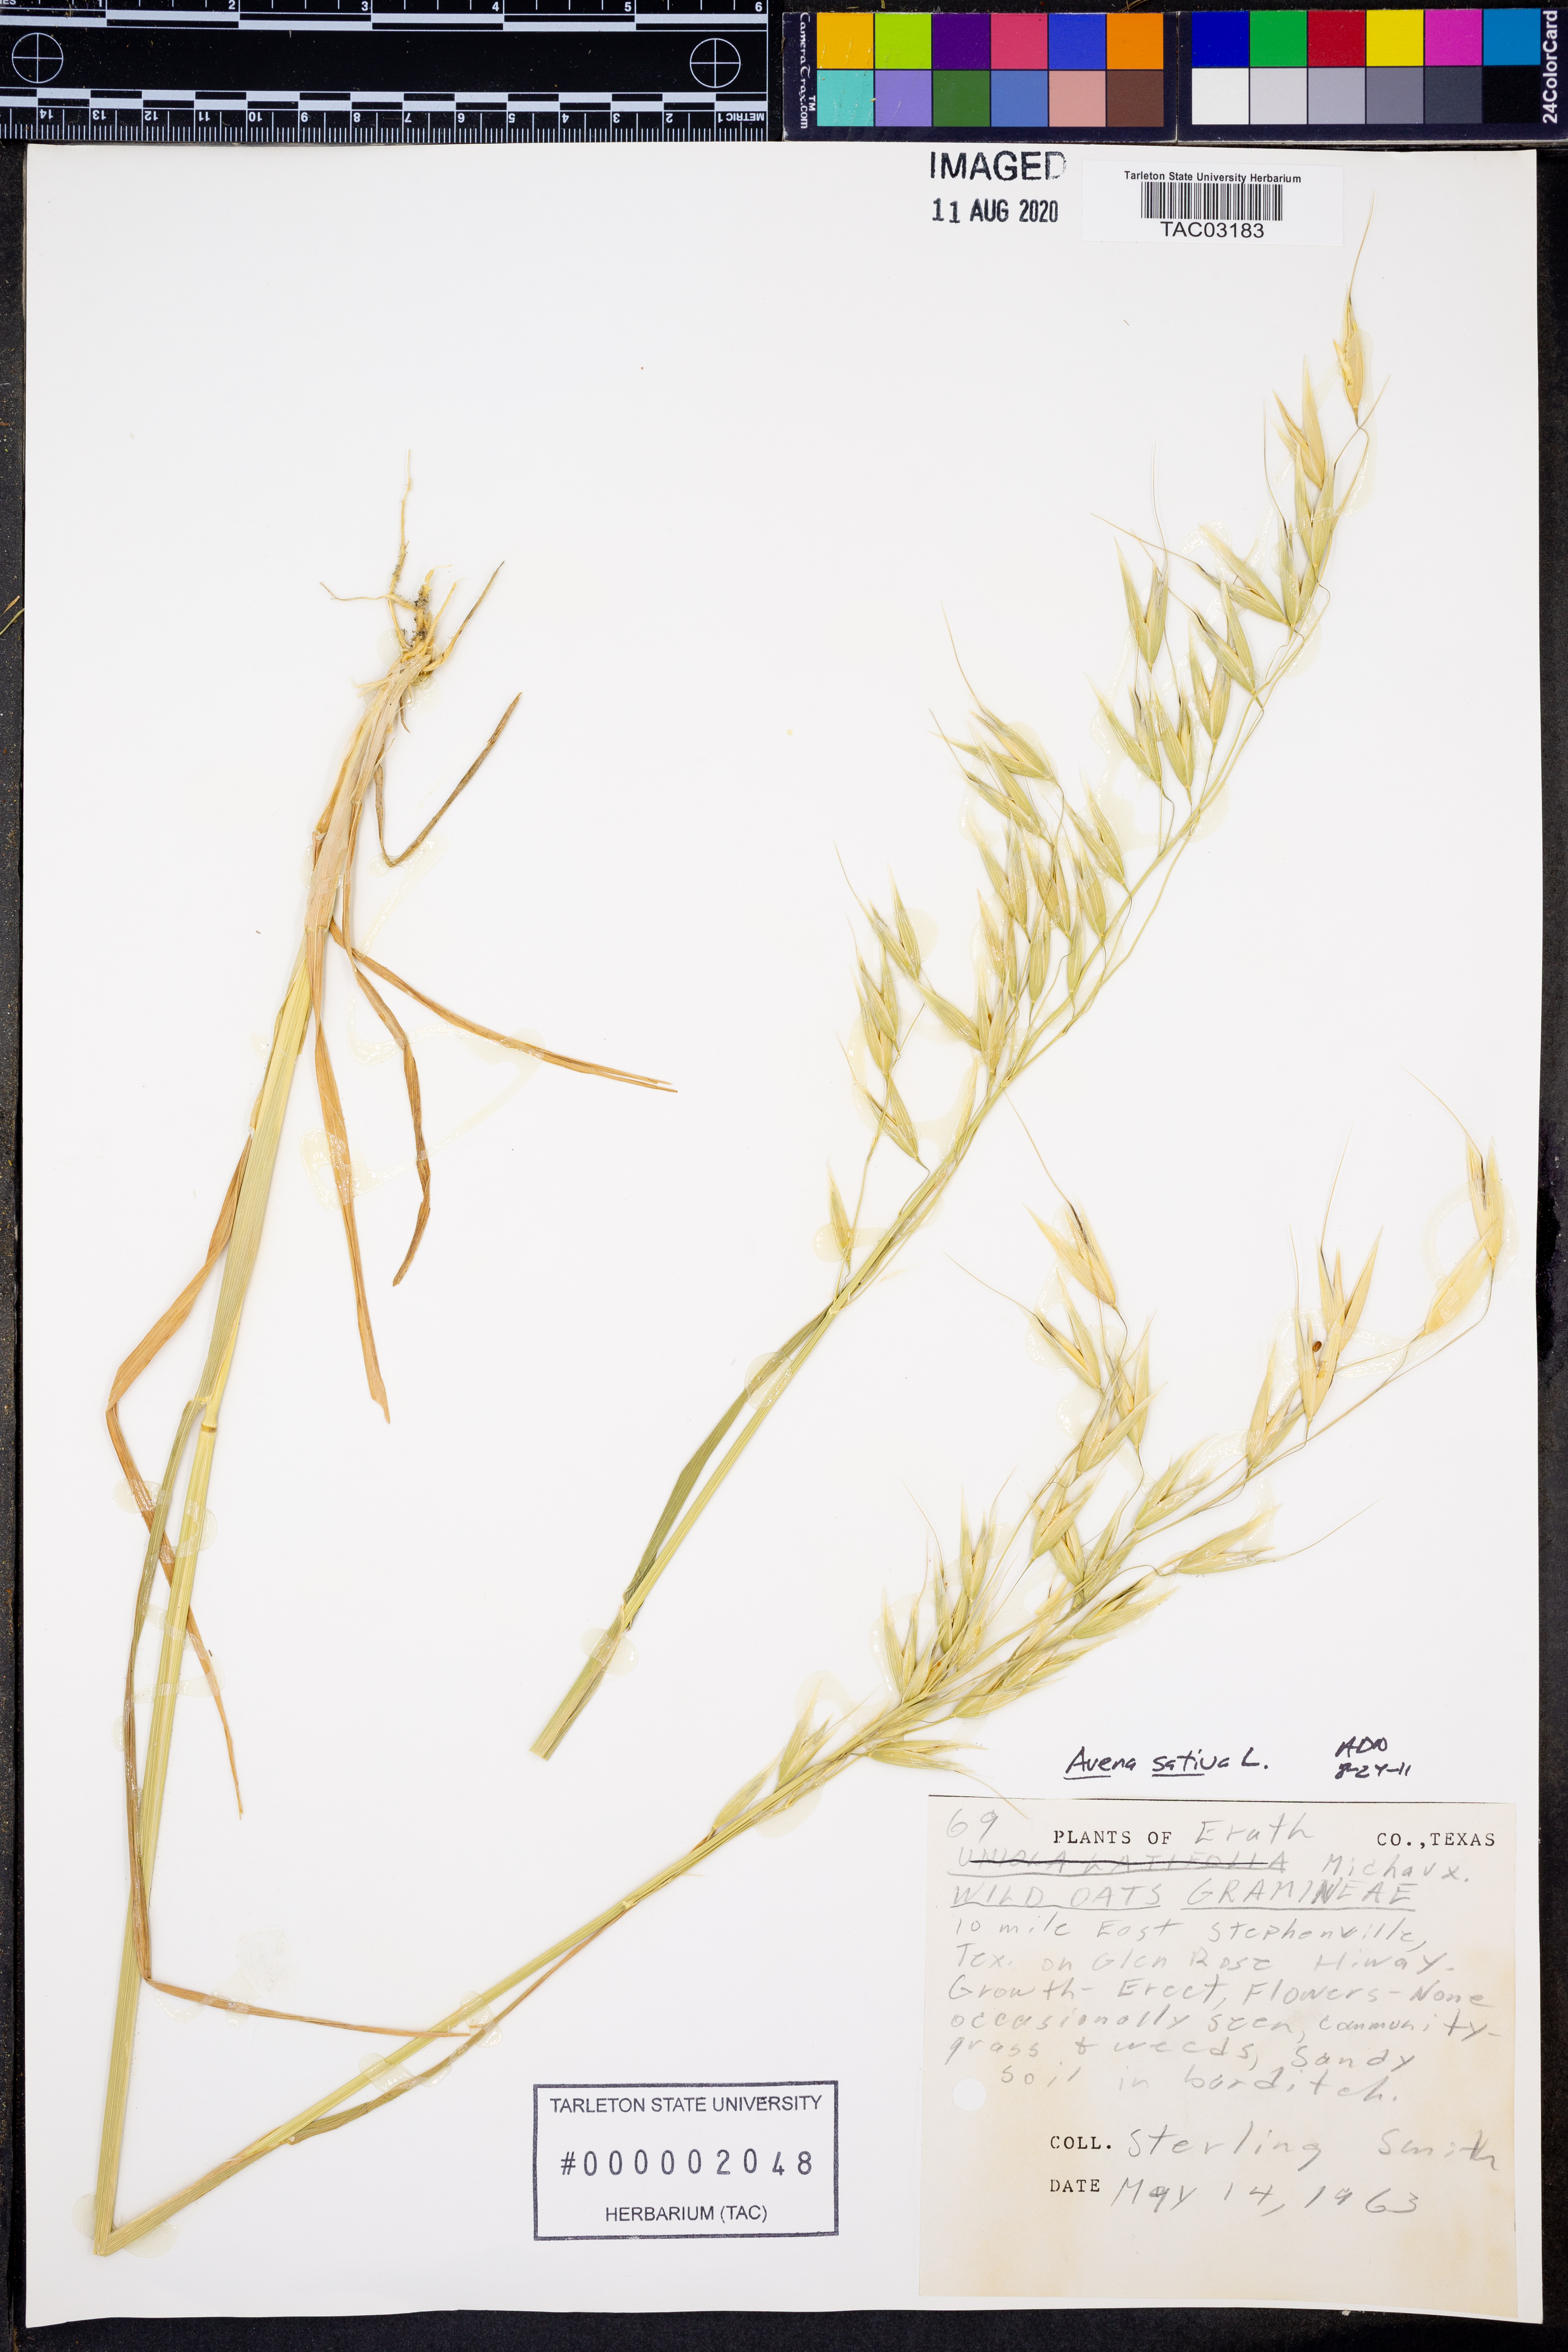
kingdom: Plantae
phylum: Tracheophyta
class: Liliopsida
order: Poales
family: Poaceae
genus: Avena
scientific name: Avena sativa
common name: Oat
